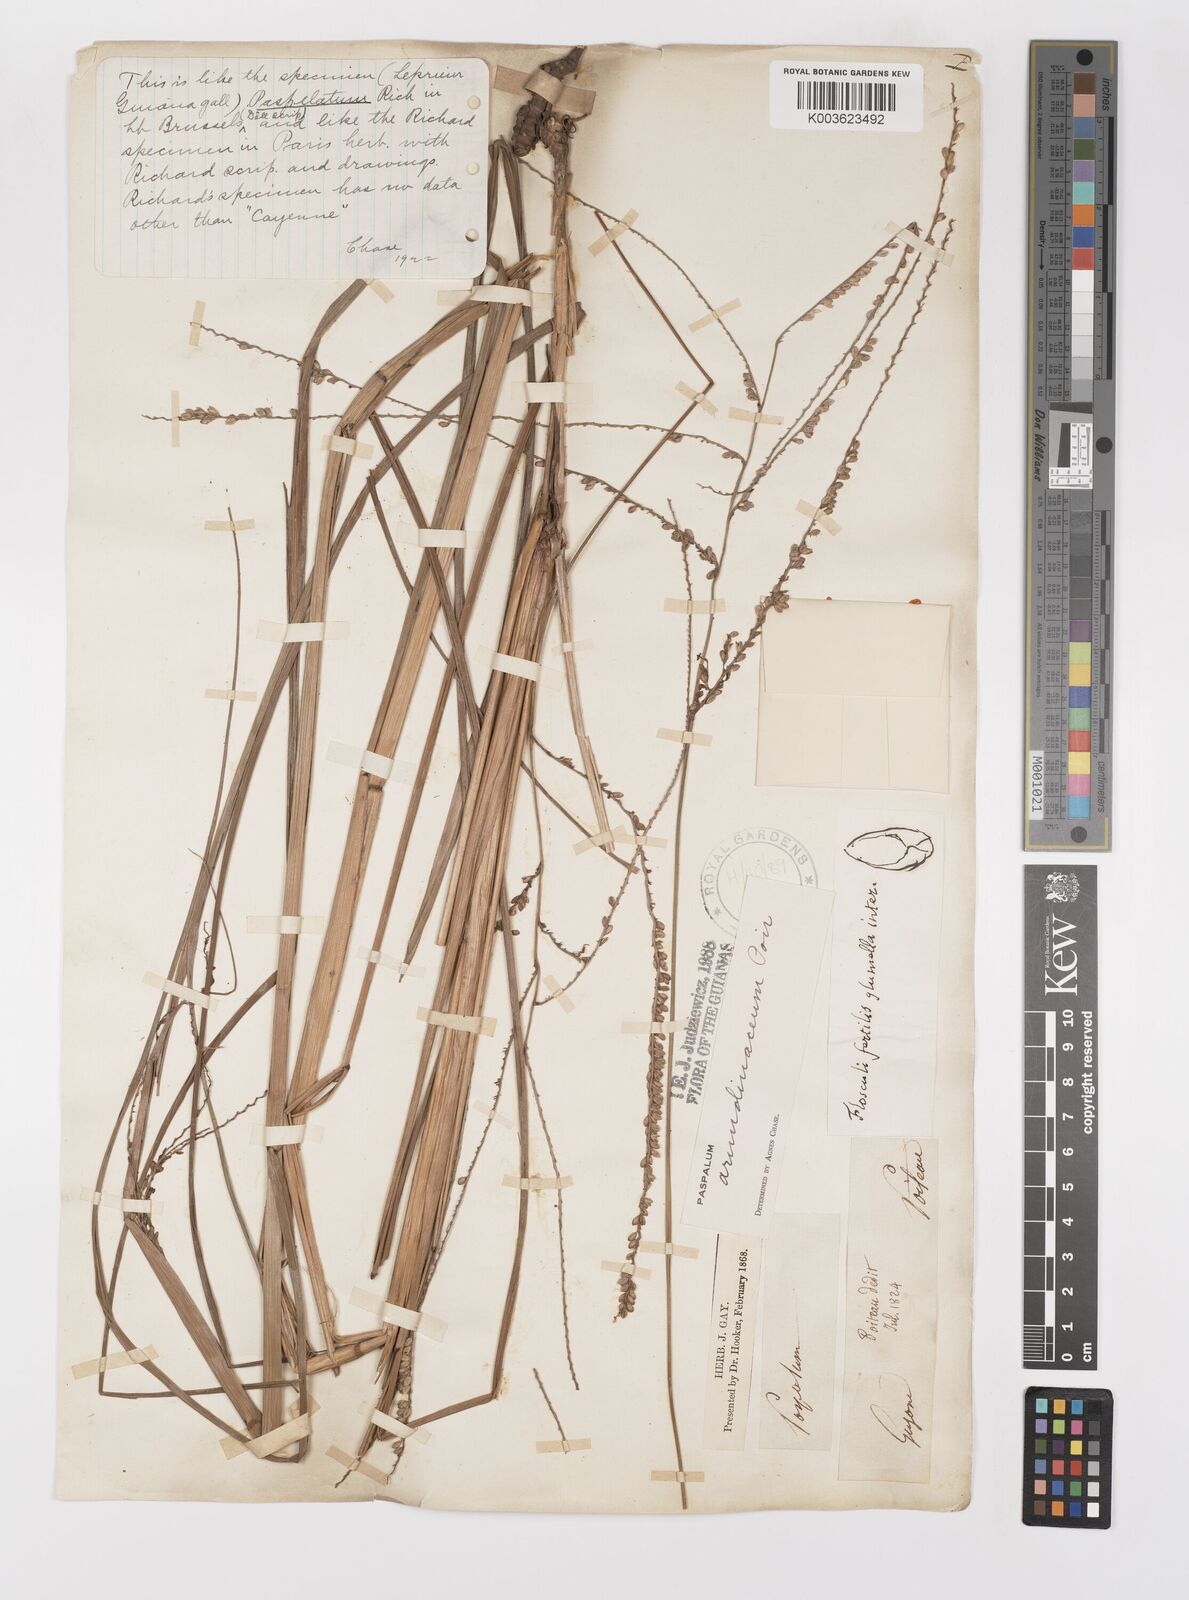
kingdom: Plantae
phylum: Tracheophyta
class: Liliopsida
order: Poales
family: Poaceae
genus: Paspalum
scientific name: Paspalum arundinaceum
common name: Thick ditch crowngrass
